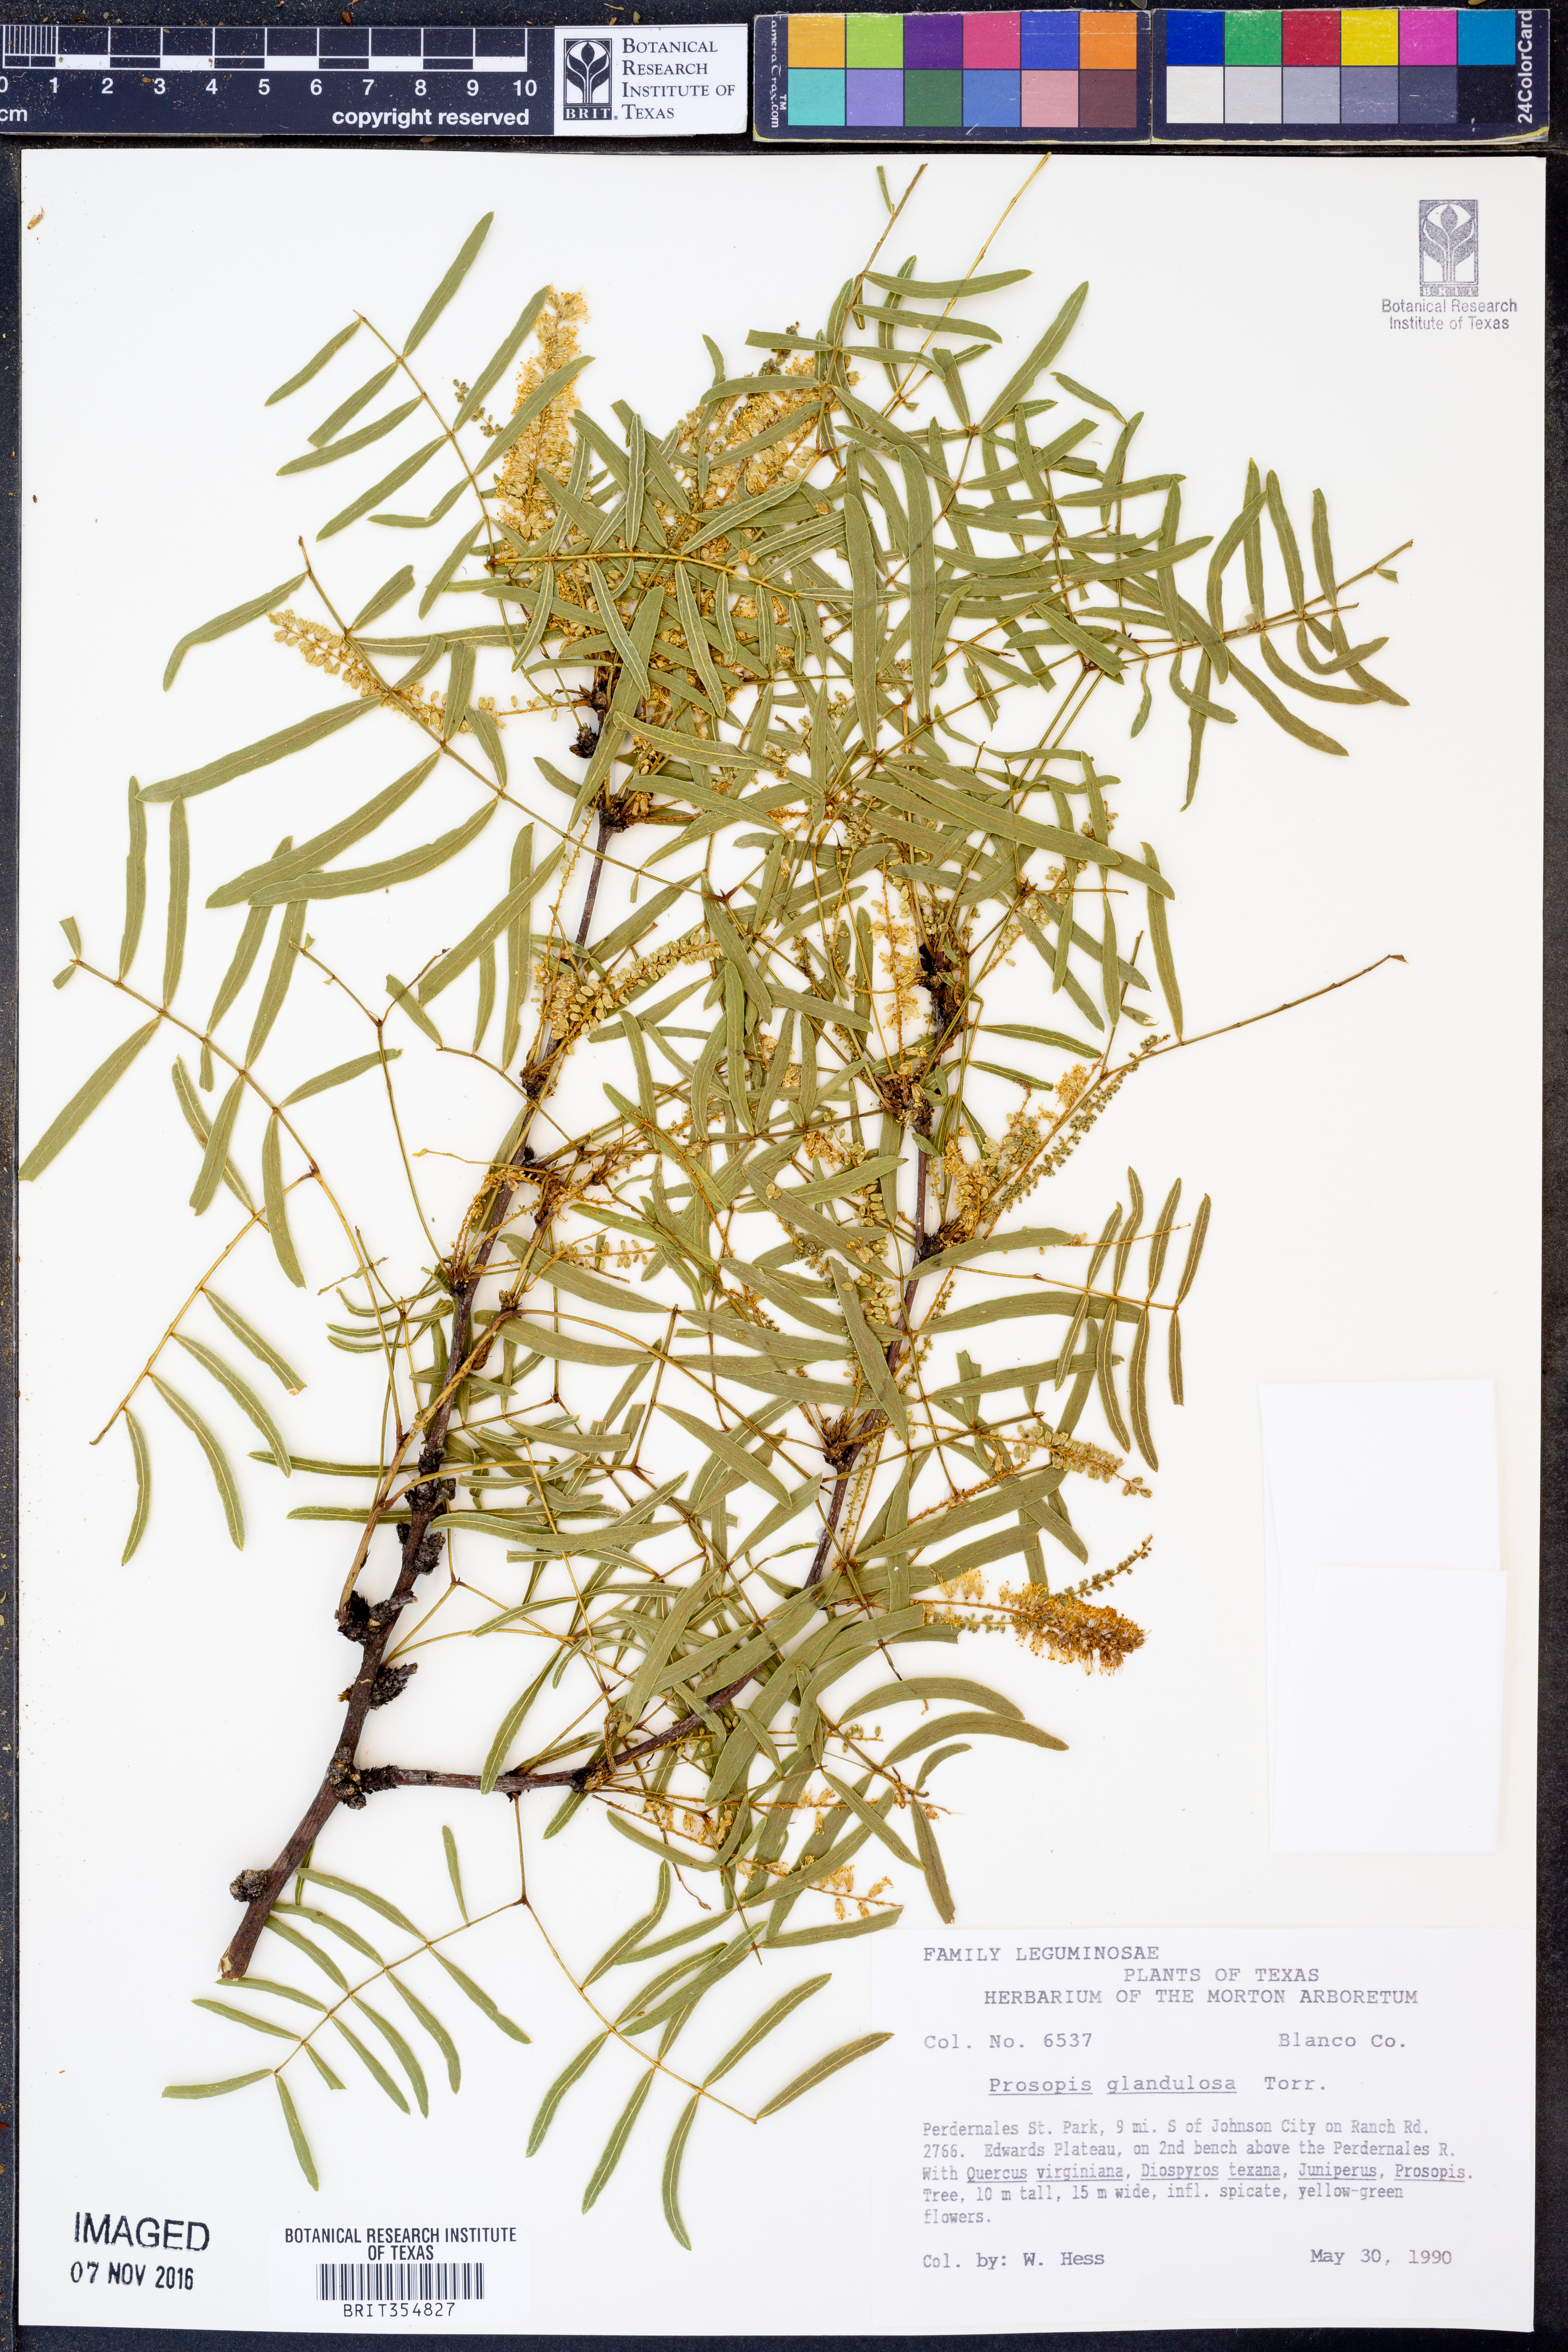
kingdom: Plantae
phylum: Tracheophyta
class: Magnoliopsida
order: Fabales
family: Fabaceae
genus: Prosopis
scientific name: Prosopis glandulosa
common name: Honey mesquite
